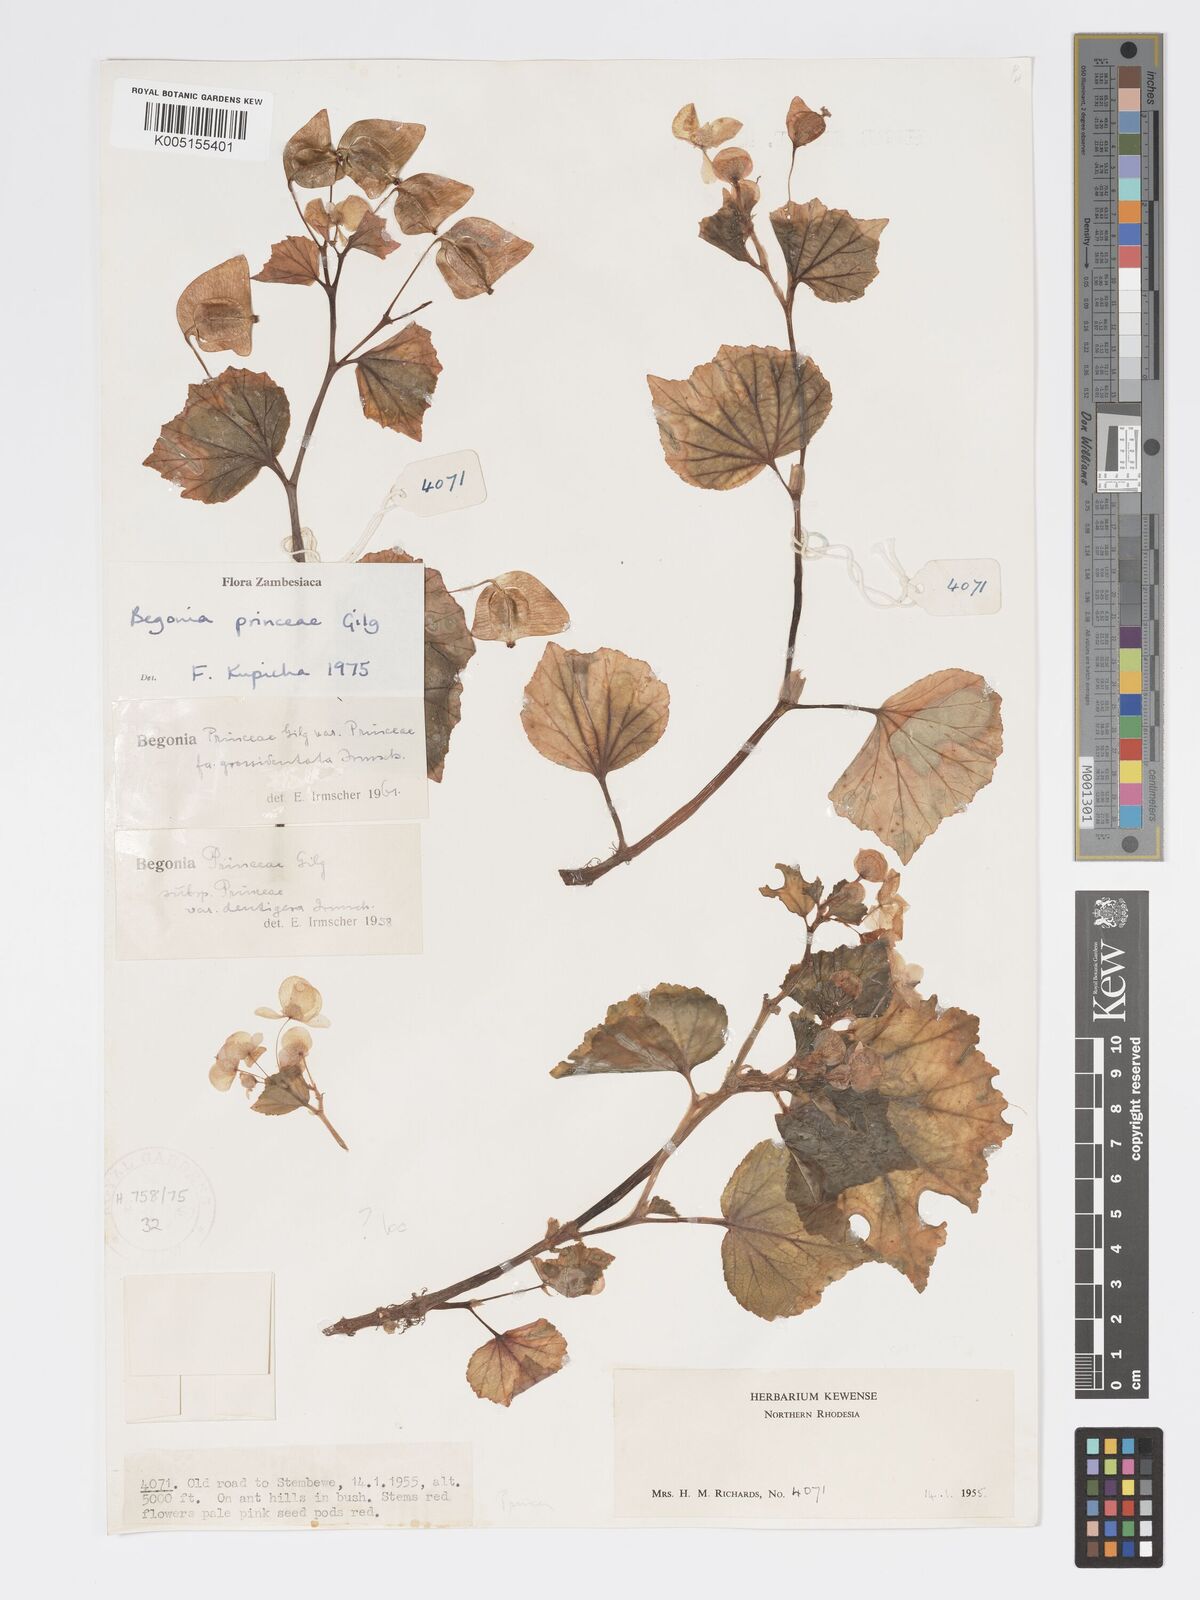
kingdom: Plantae
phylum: Tracheophyta
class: Magnoliopsida
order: Cucurbitales
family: Begoniaceae
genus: Begonia
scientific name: Begonia princeae
